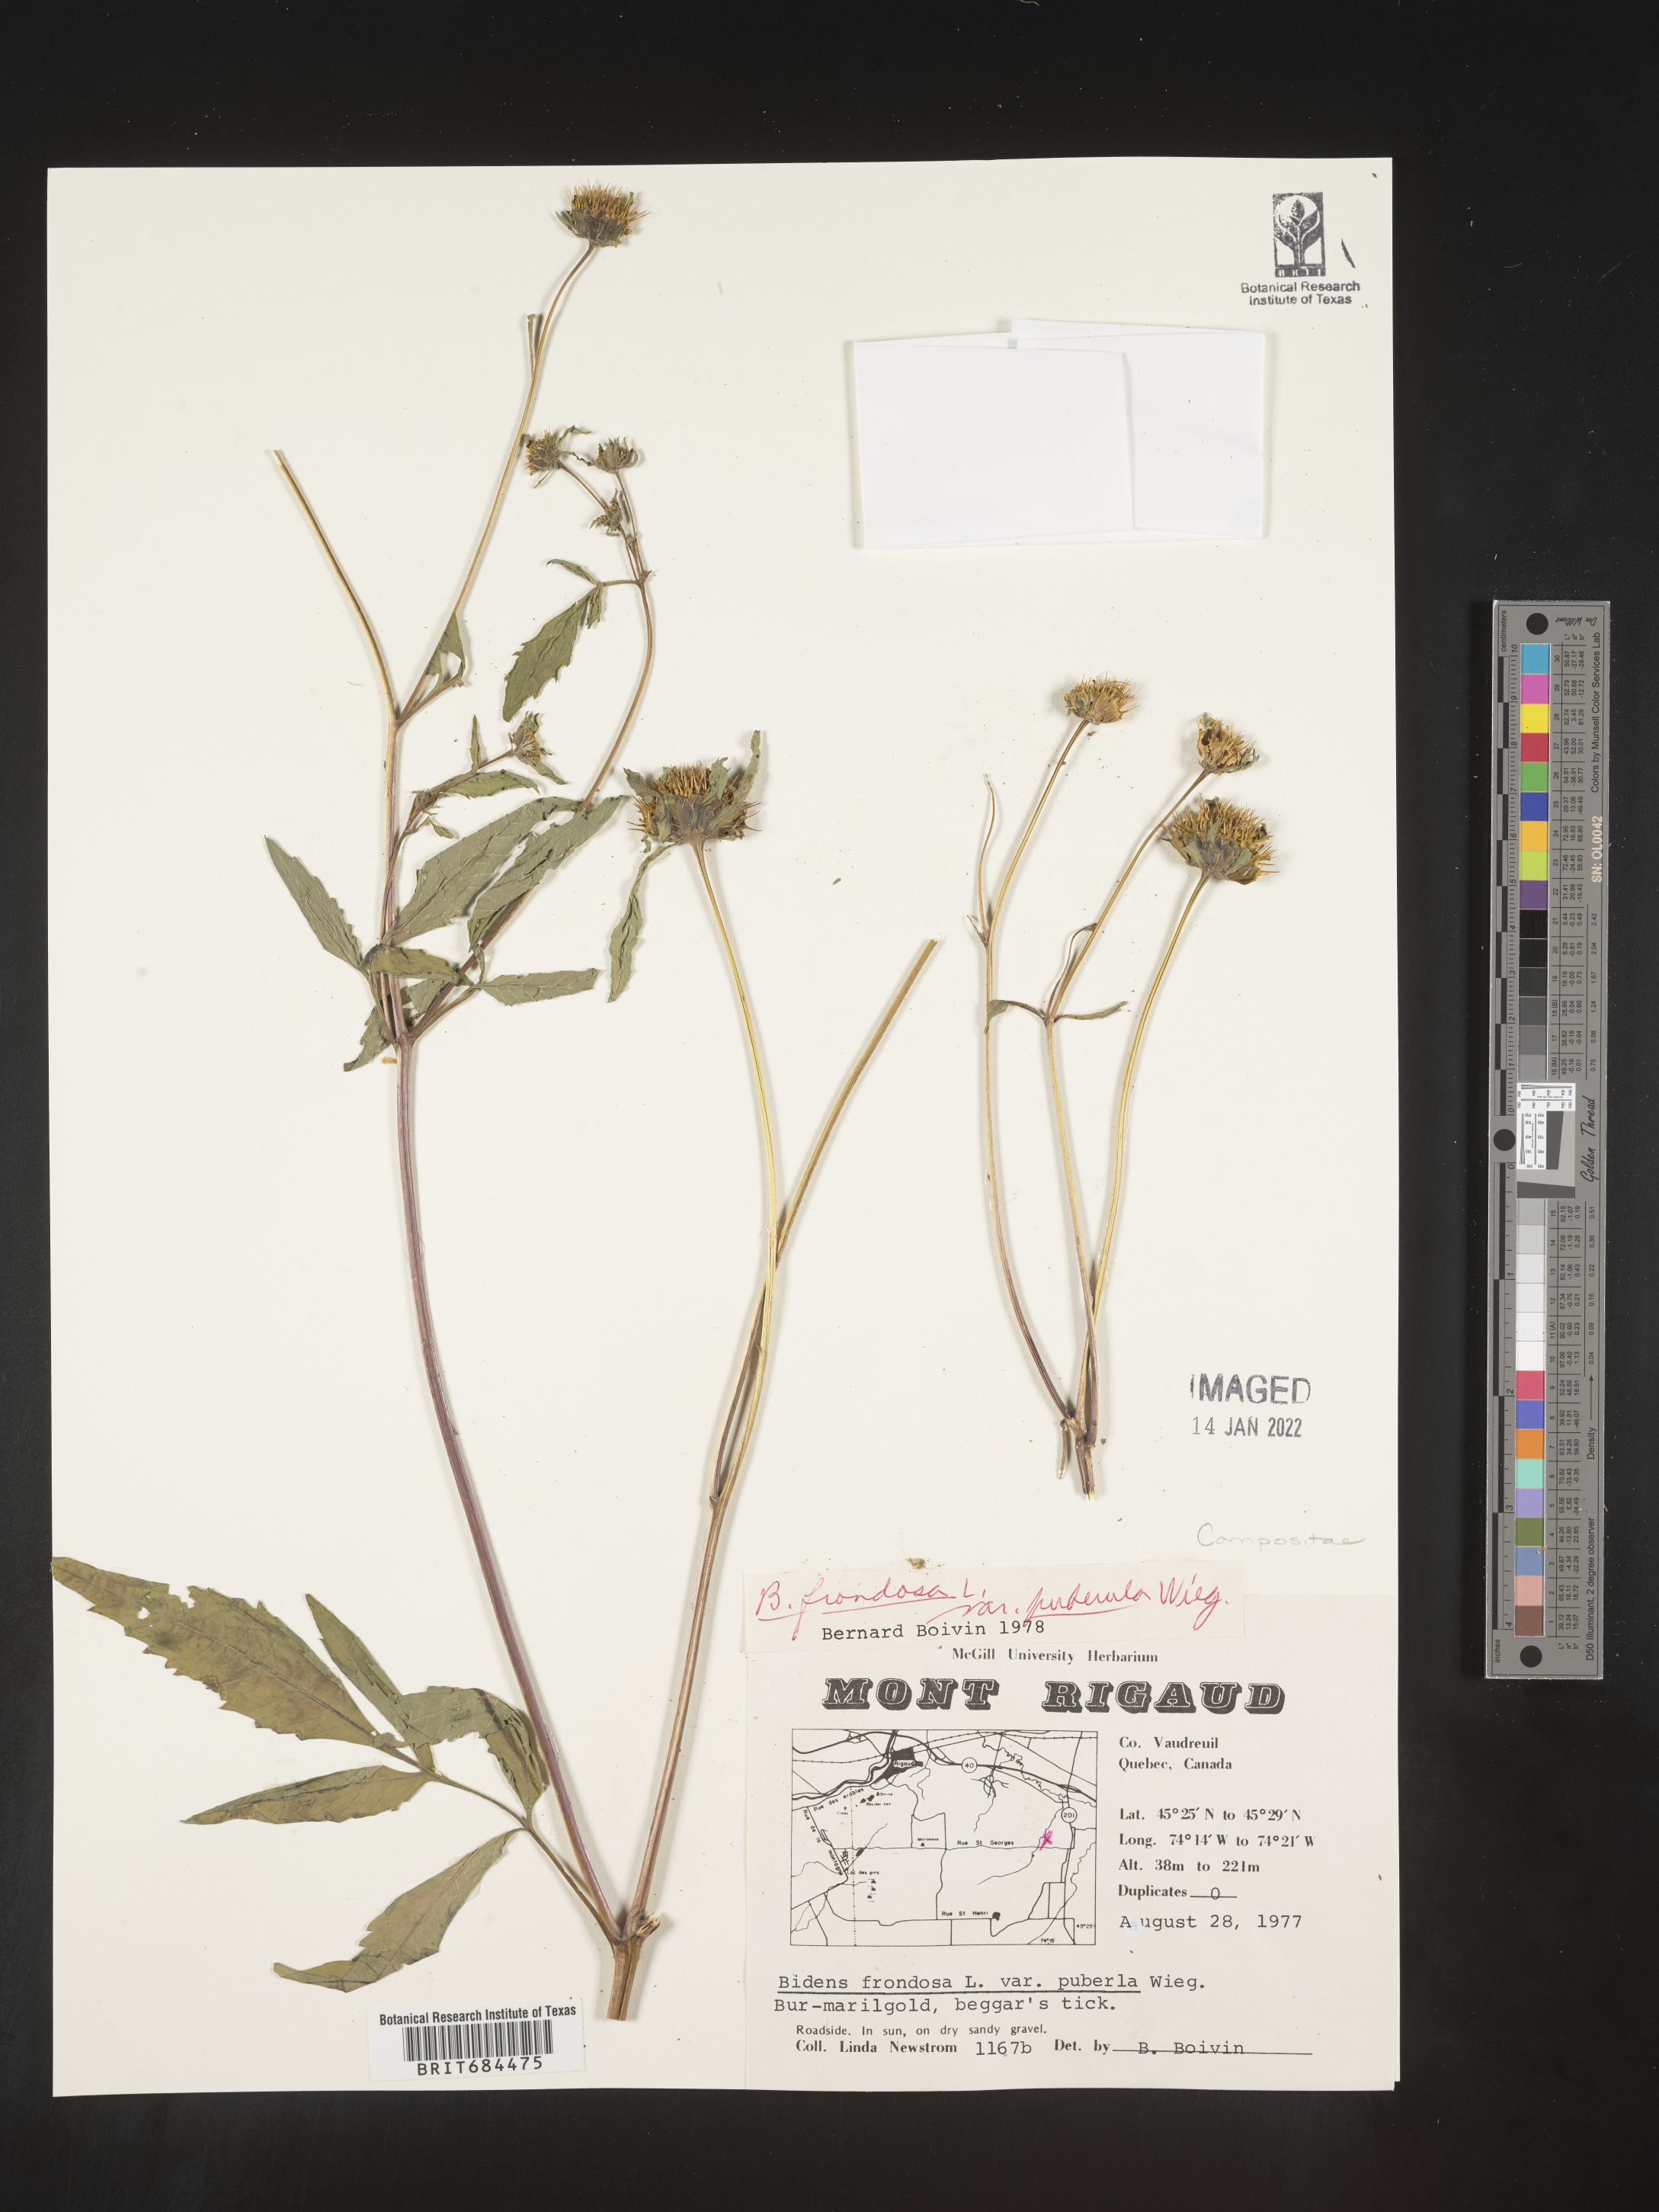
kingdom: Plantae
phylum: Tracheophyta
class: Magnoliopsida
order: Asterales
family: Asteraceae
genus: Bidens
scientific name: Bidens frondosa
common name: Beggarticks
